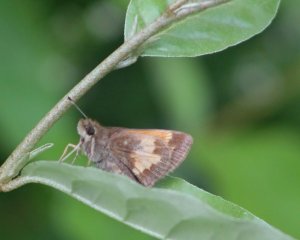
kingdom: Animalia
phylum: Arthropoda
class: Insecta
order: Lepidoptera
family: Hesperiidae
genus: Lon
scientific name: Lon hobomok
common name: Hobomok Skipper
